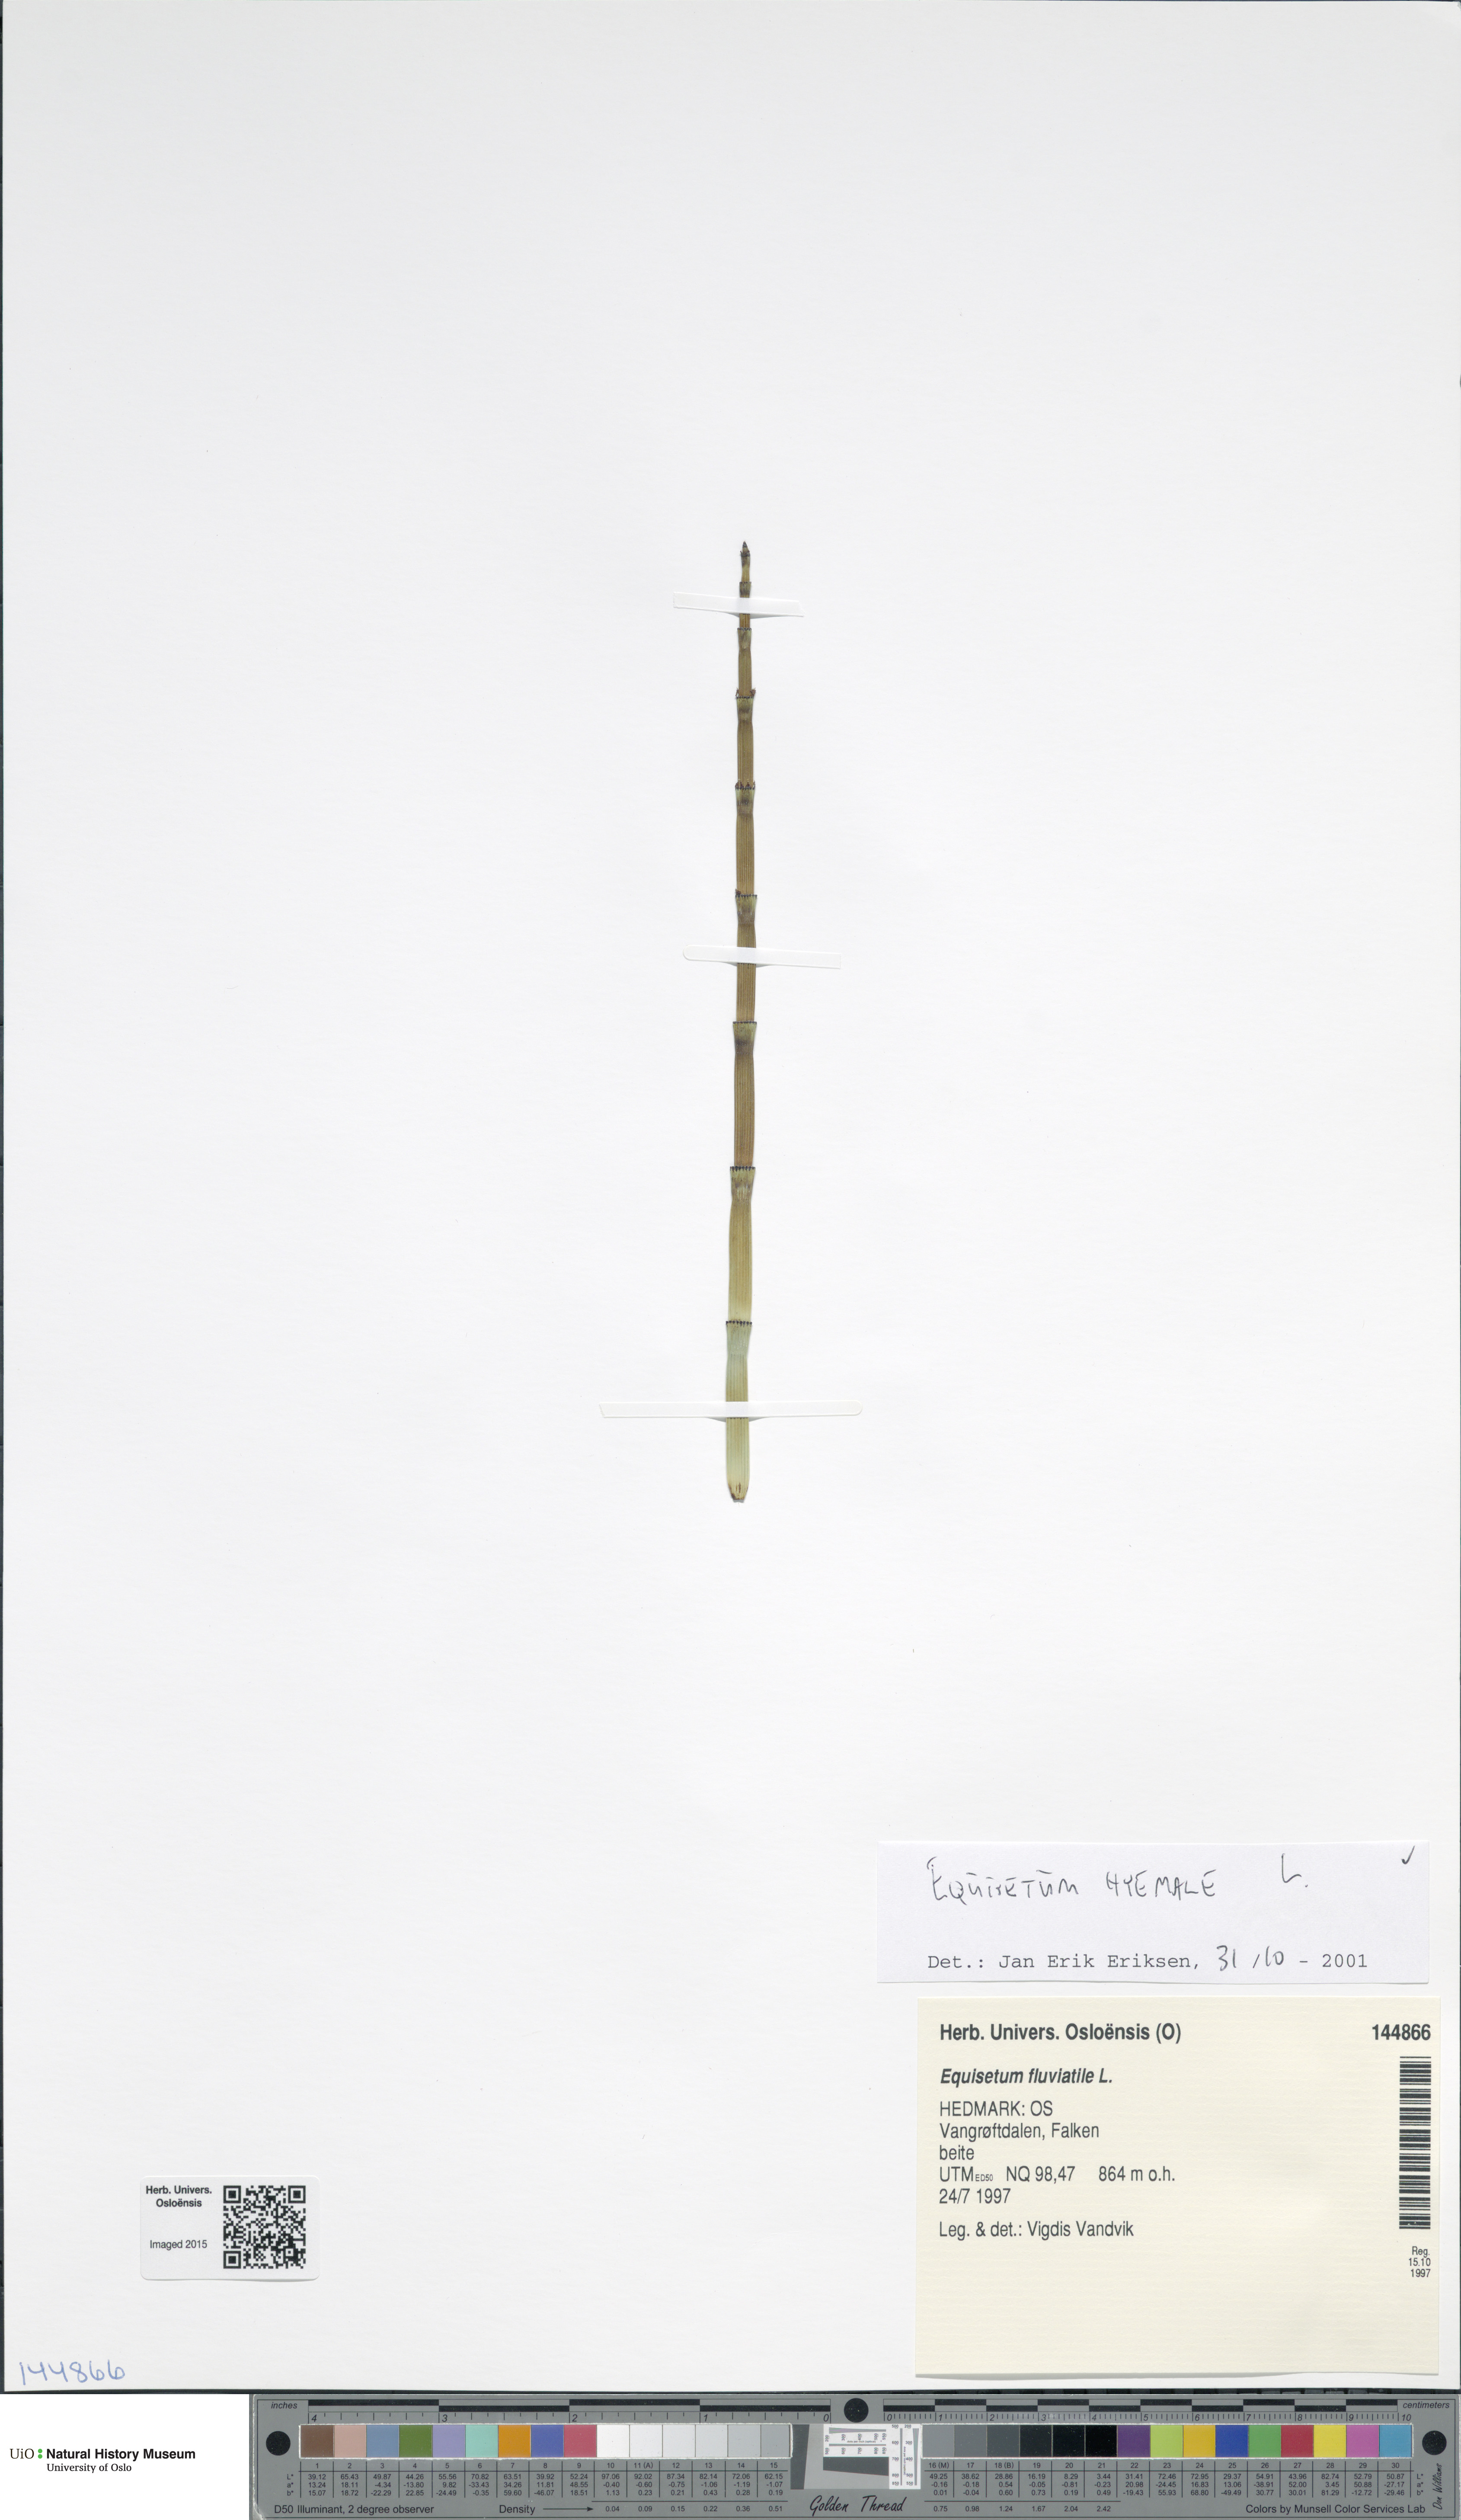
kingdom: Plantae
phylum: Tracheophyta
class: Polypodiopsida
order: Equisetales
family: Equisetaceae
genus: Equisetum
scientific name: Equisetum hyemale
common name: Rough horsetail
